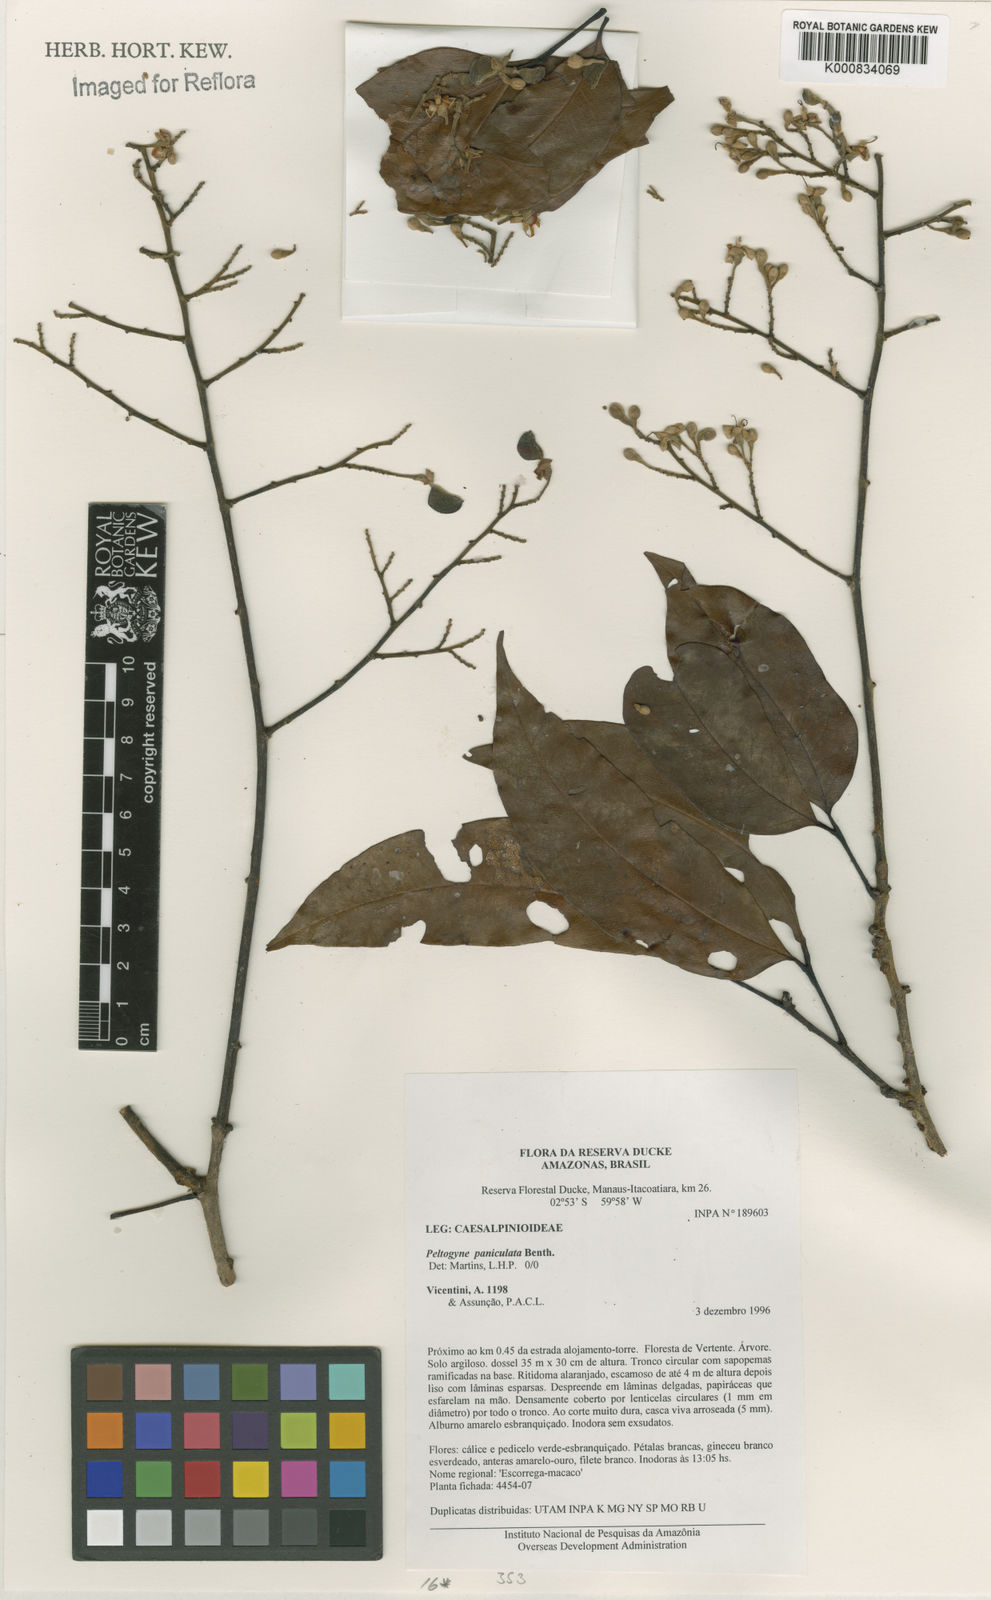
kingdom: Plantae
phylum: Tracheophyta
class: Magnoliopsida
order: Fabales
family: Fabaceae
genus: Peltogyne
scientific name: Peltogyne paniculata
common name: Purpleheart
